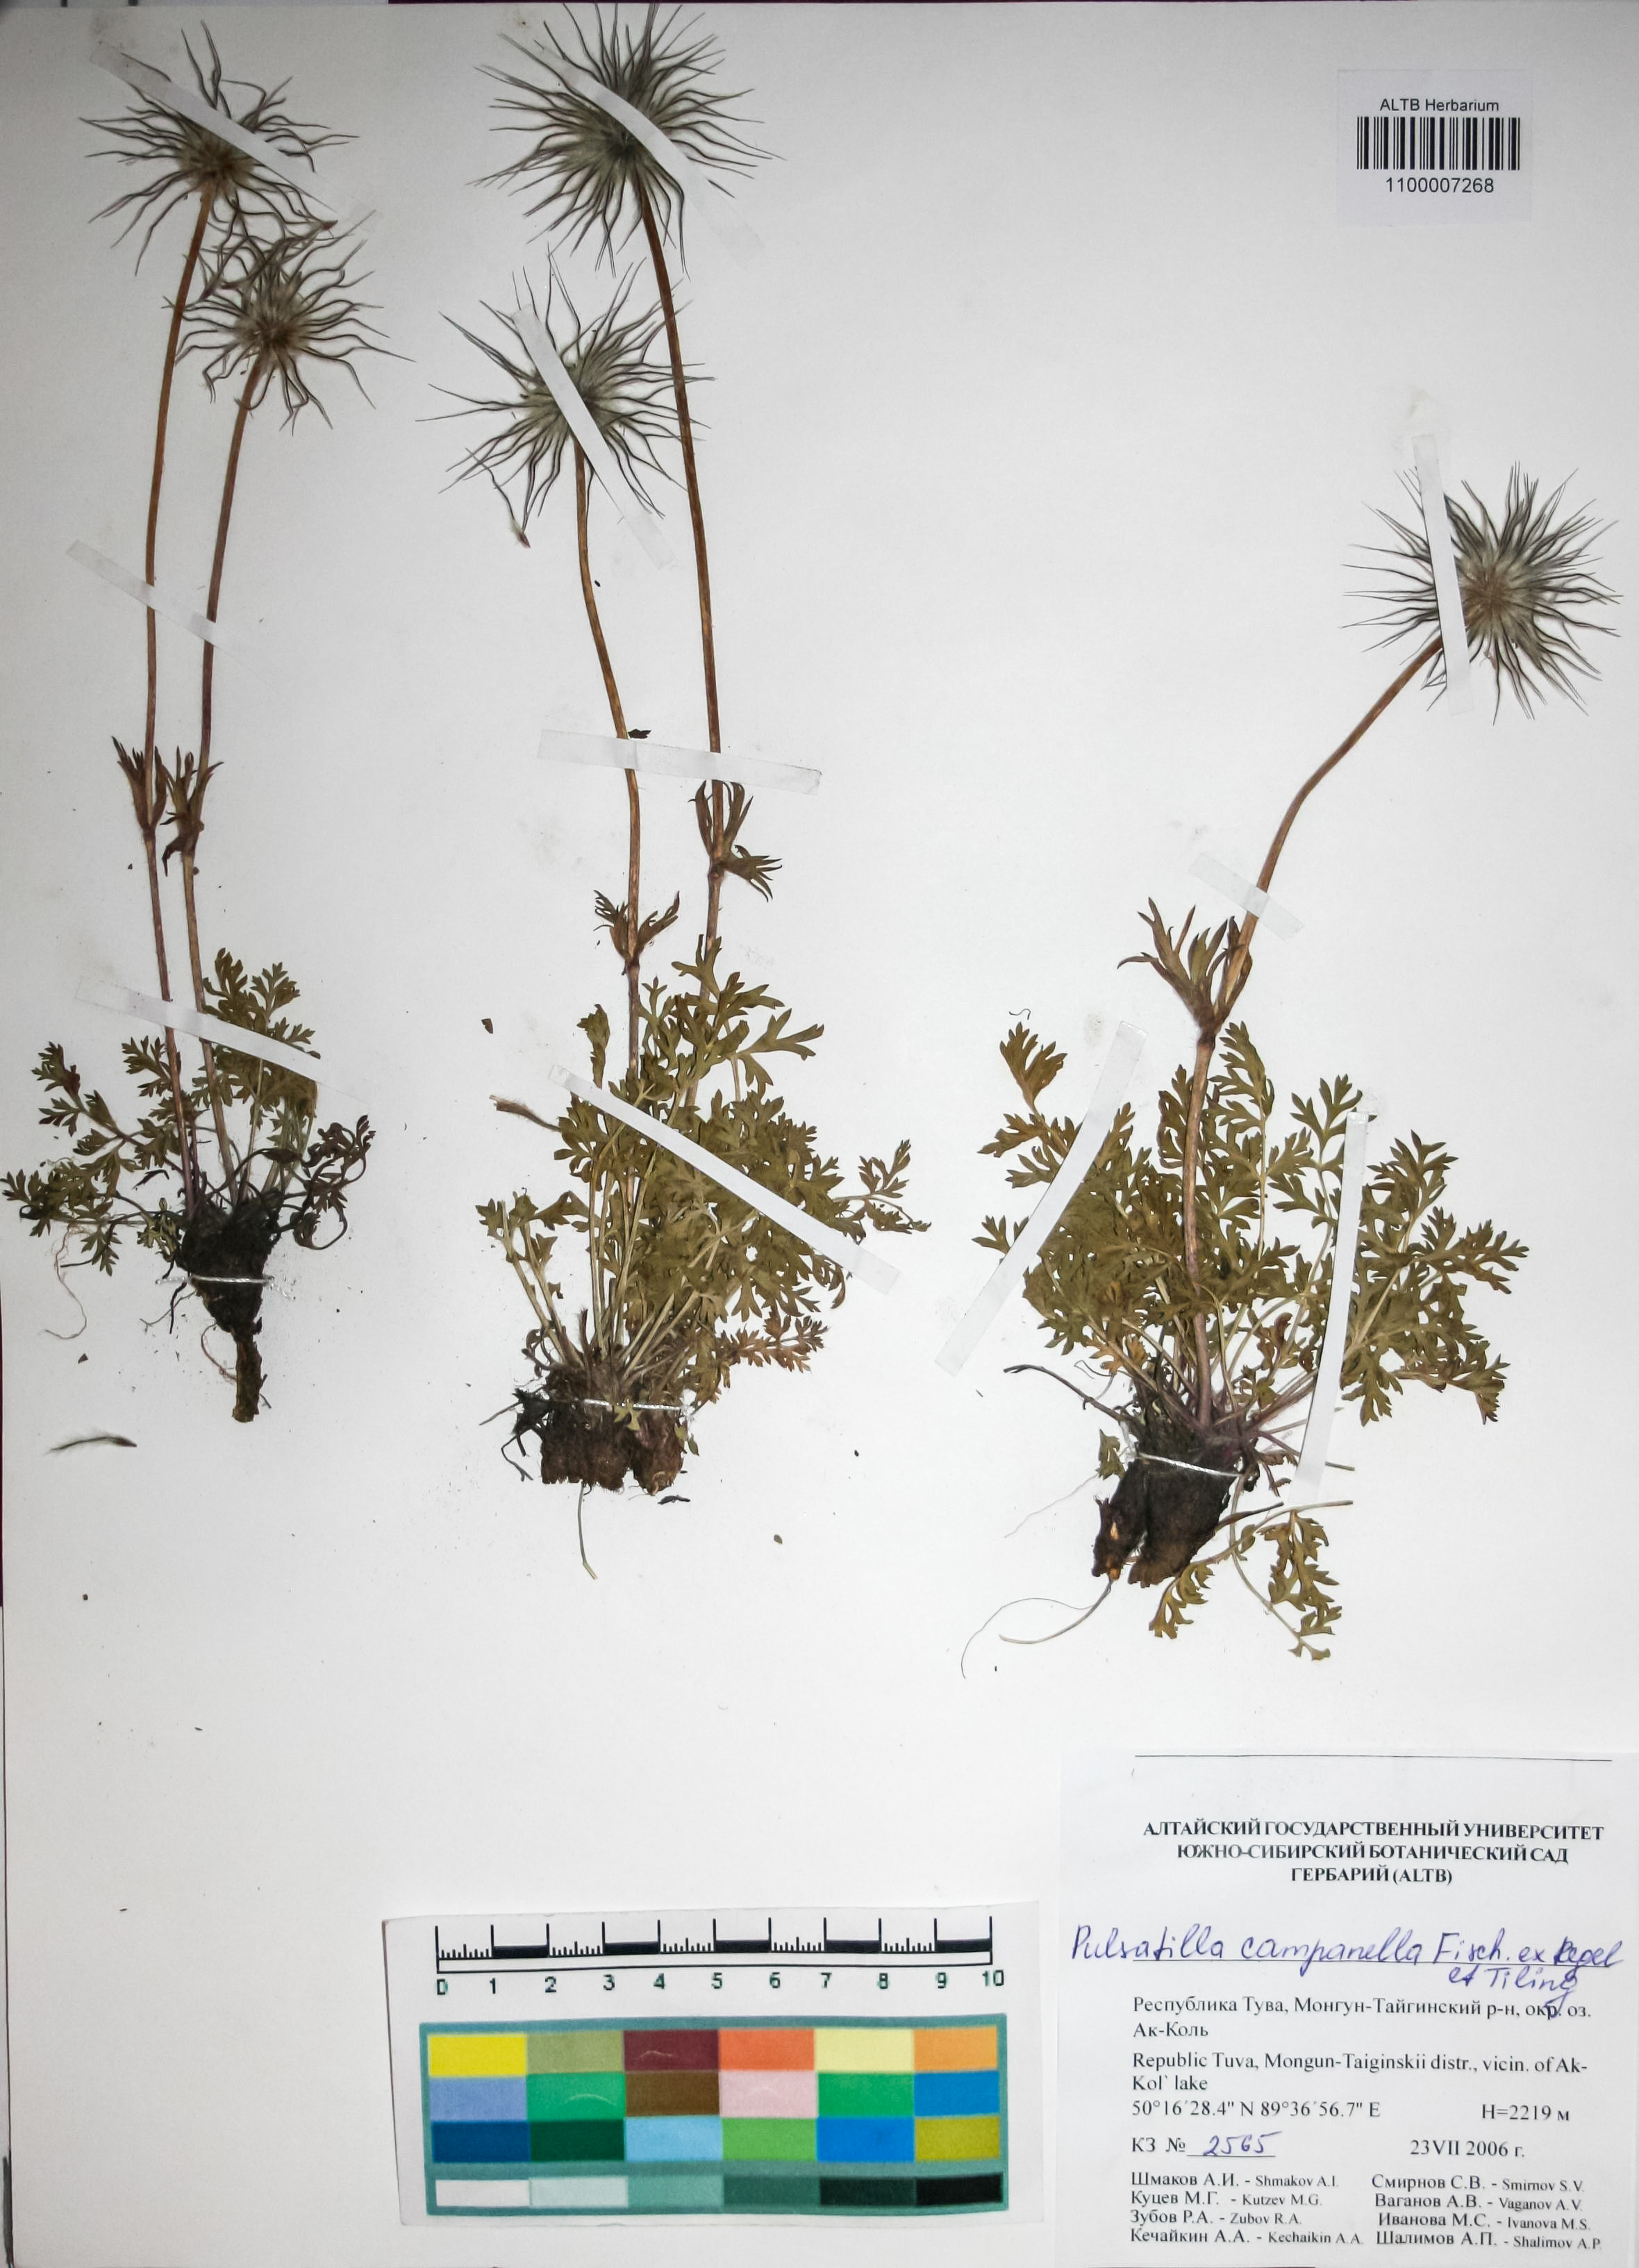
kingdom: Plantae
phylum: Tracheophyta
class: Magnoliopsida
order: Ranunculales
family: Ranunculaceae
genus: Pulsatilla
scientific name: Pulsatilla campanella
